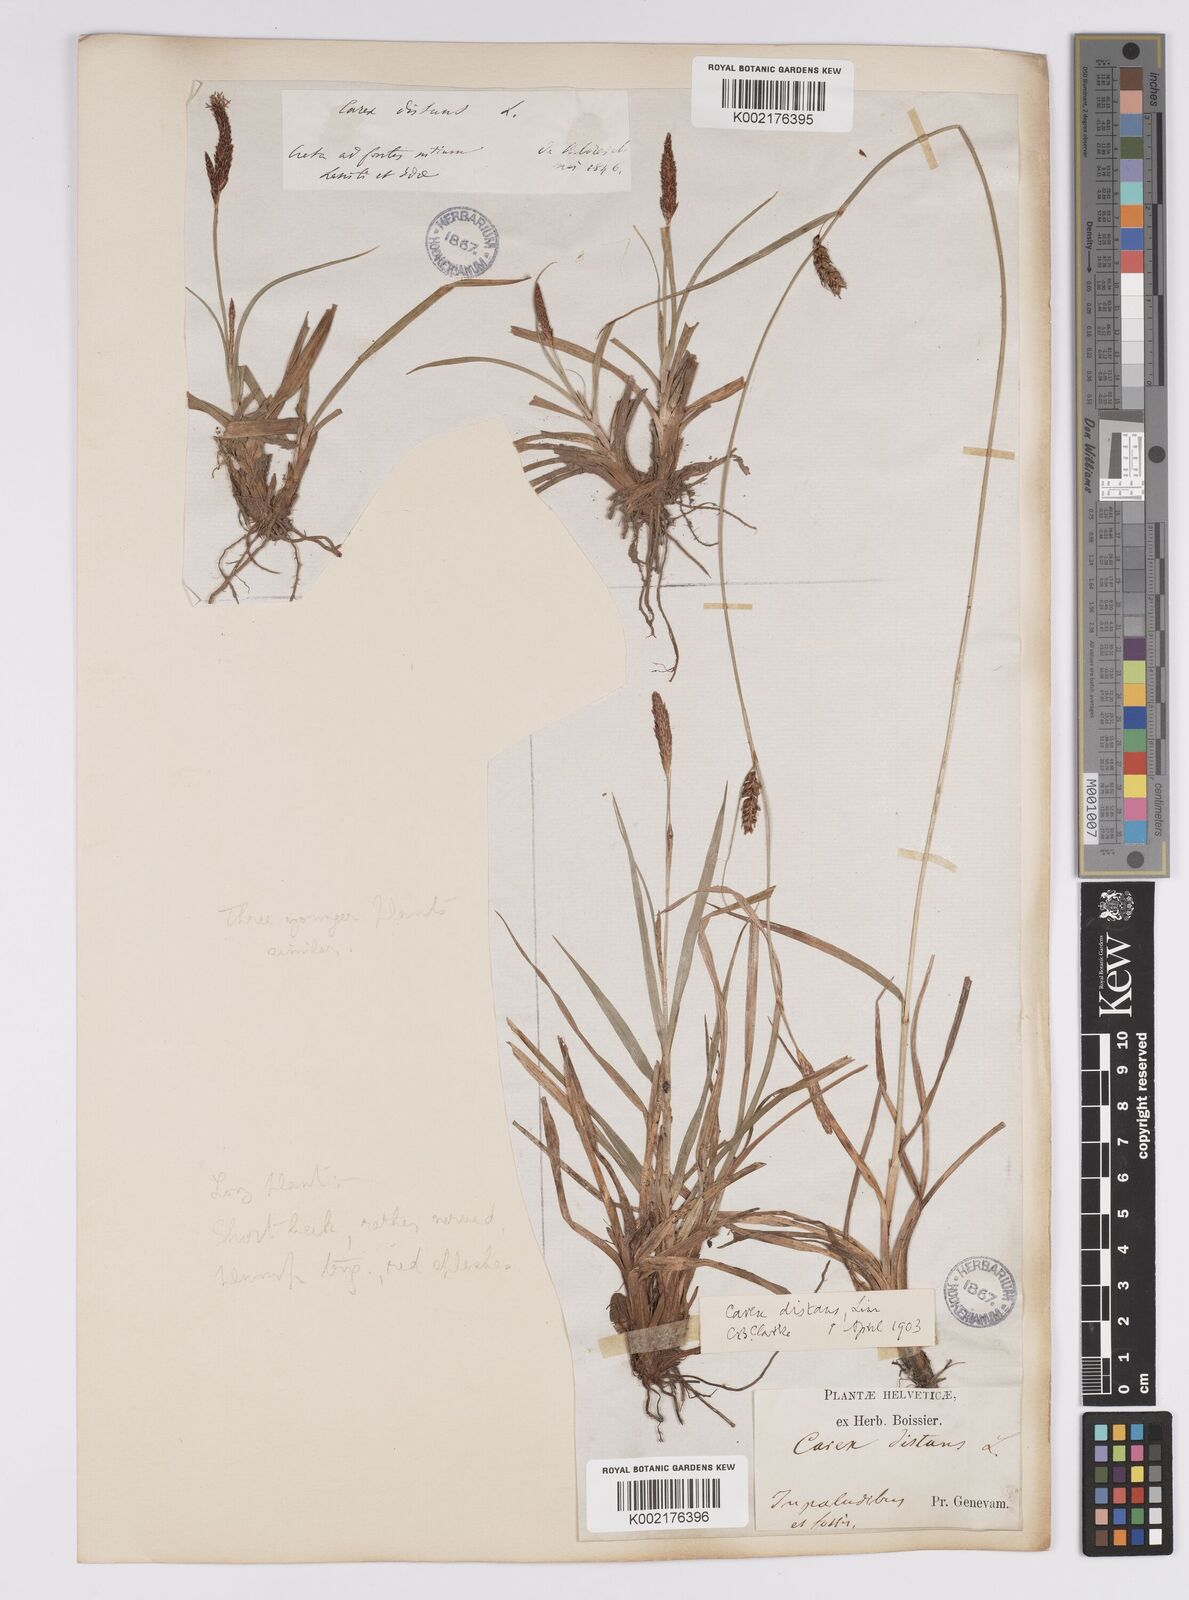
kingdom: Plantae
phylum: Tracheophyta
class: Liliopsida
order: Poales
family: Cyperaceae
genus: Carex
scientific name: Carex distans
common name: Distant sedge
